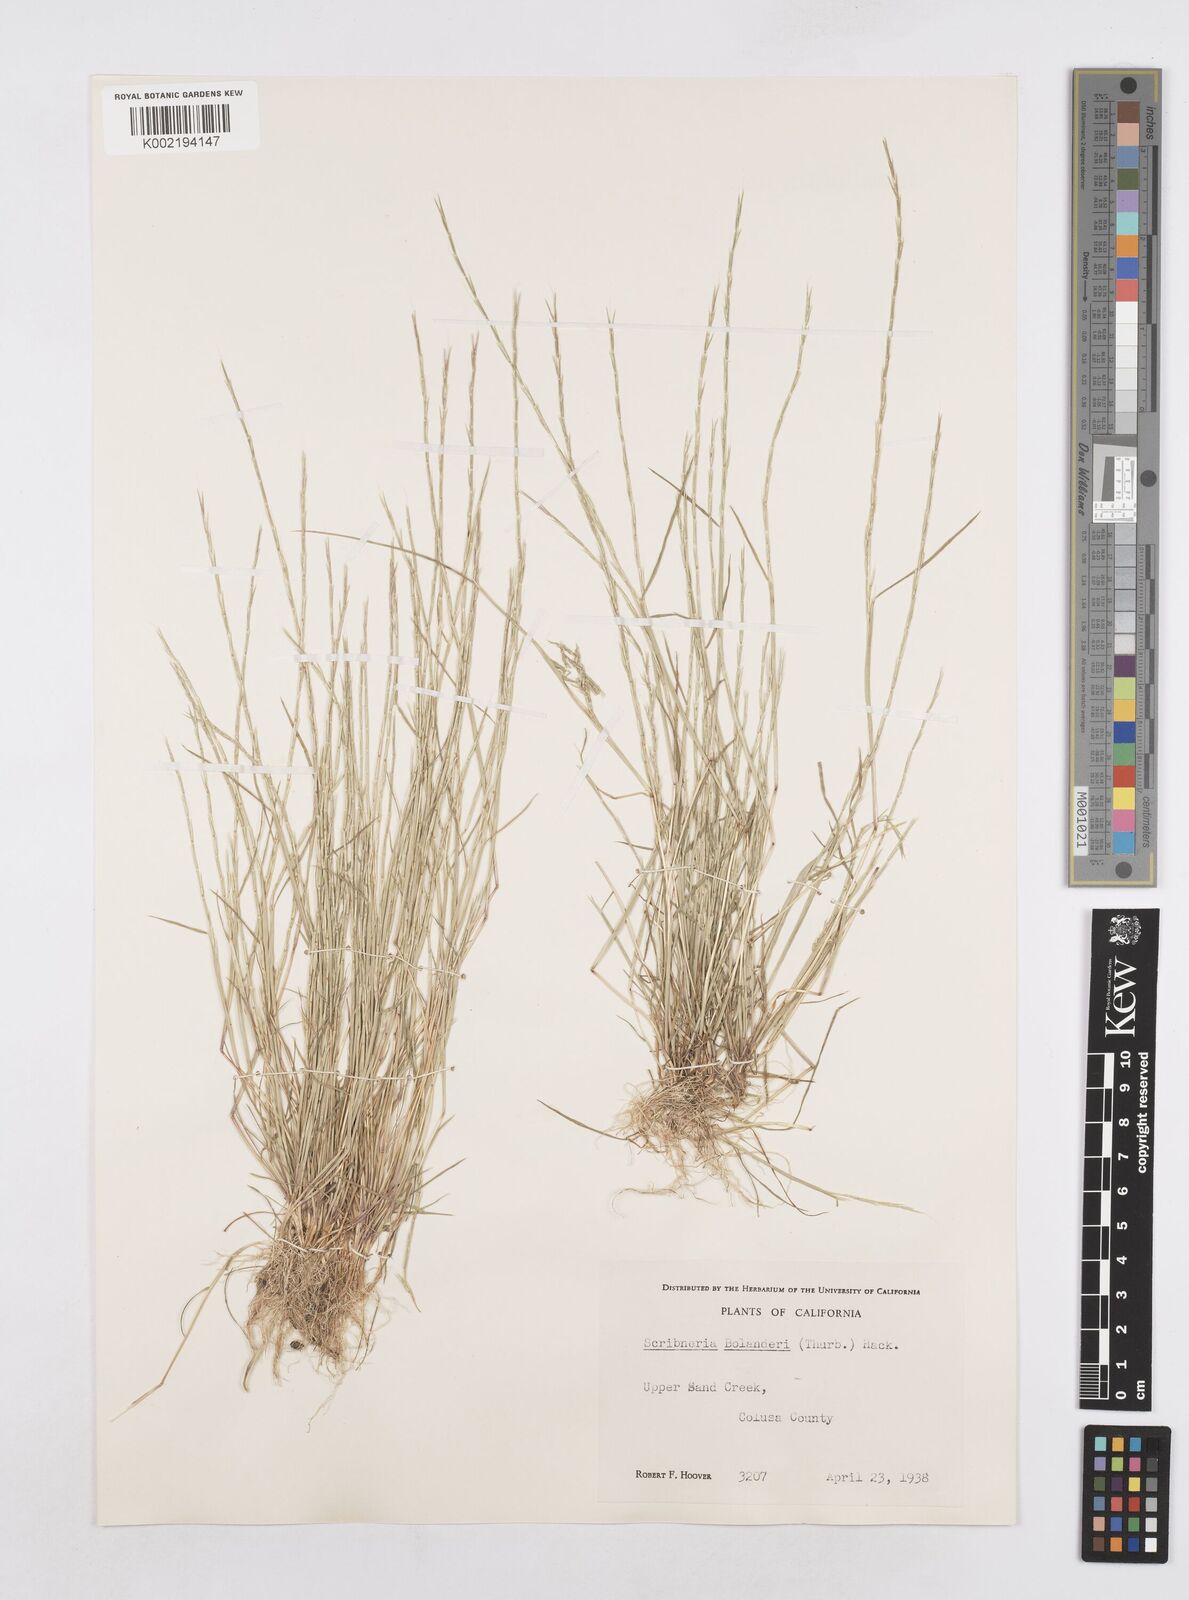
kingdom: Plantae
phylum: Tracheophyta
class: Liliopsida
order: Poales
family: Poaceae
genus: Deschampsia
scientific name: Deschampsia bolanderi
